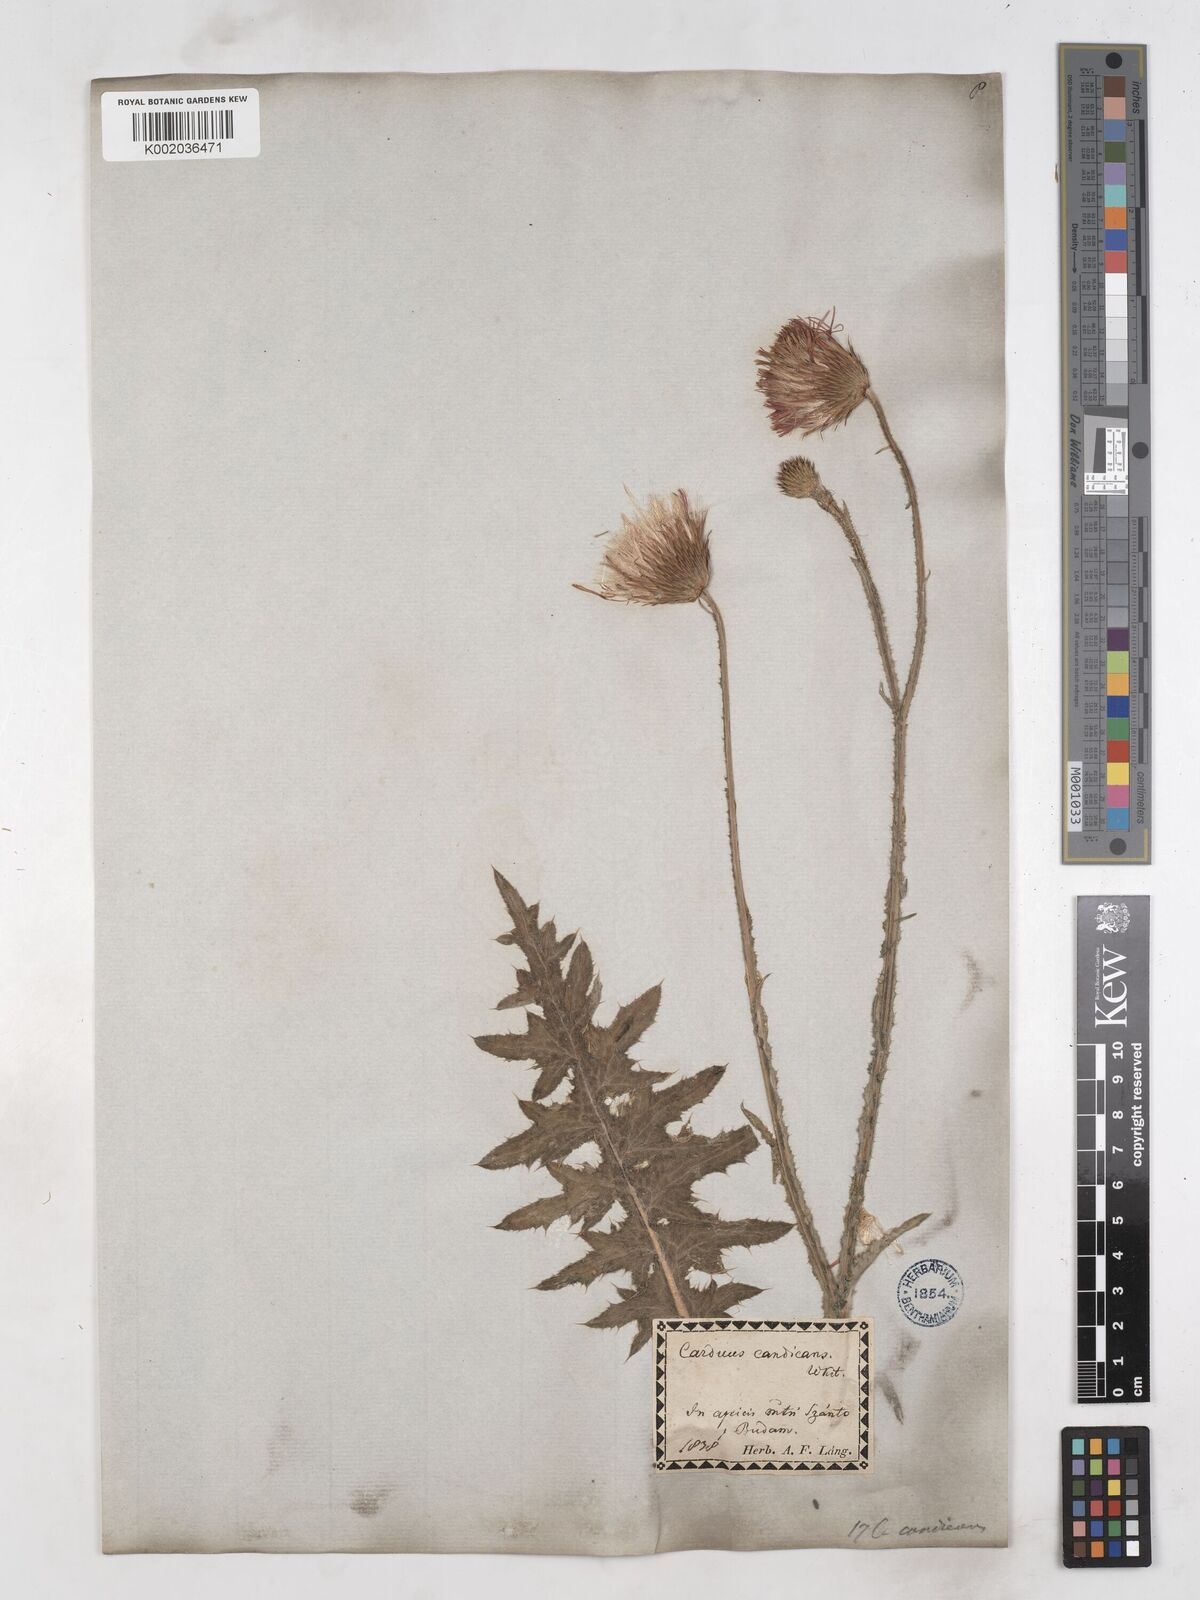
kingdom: Plantae
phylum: Tracheophyta
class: Magnoliopsida
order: Asterales
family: Asteraceae
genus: Carduus
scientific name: Carduus candicans
